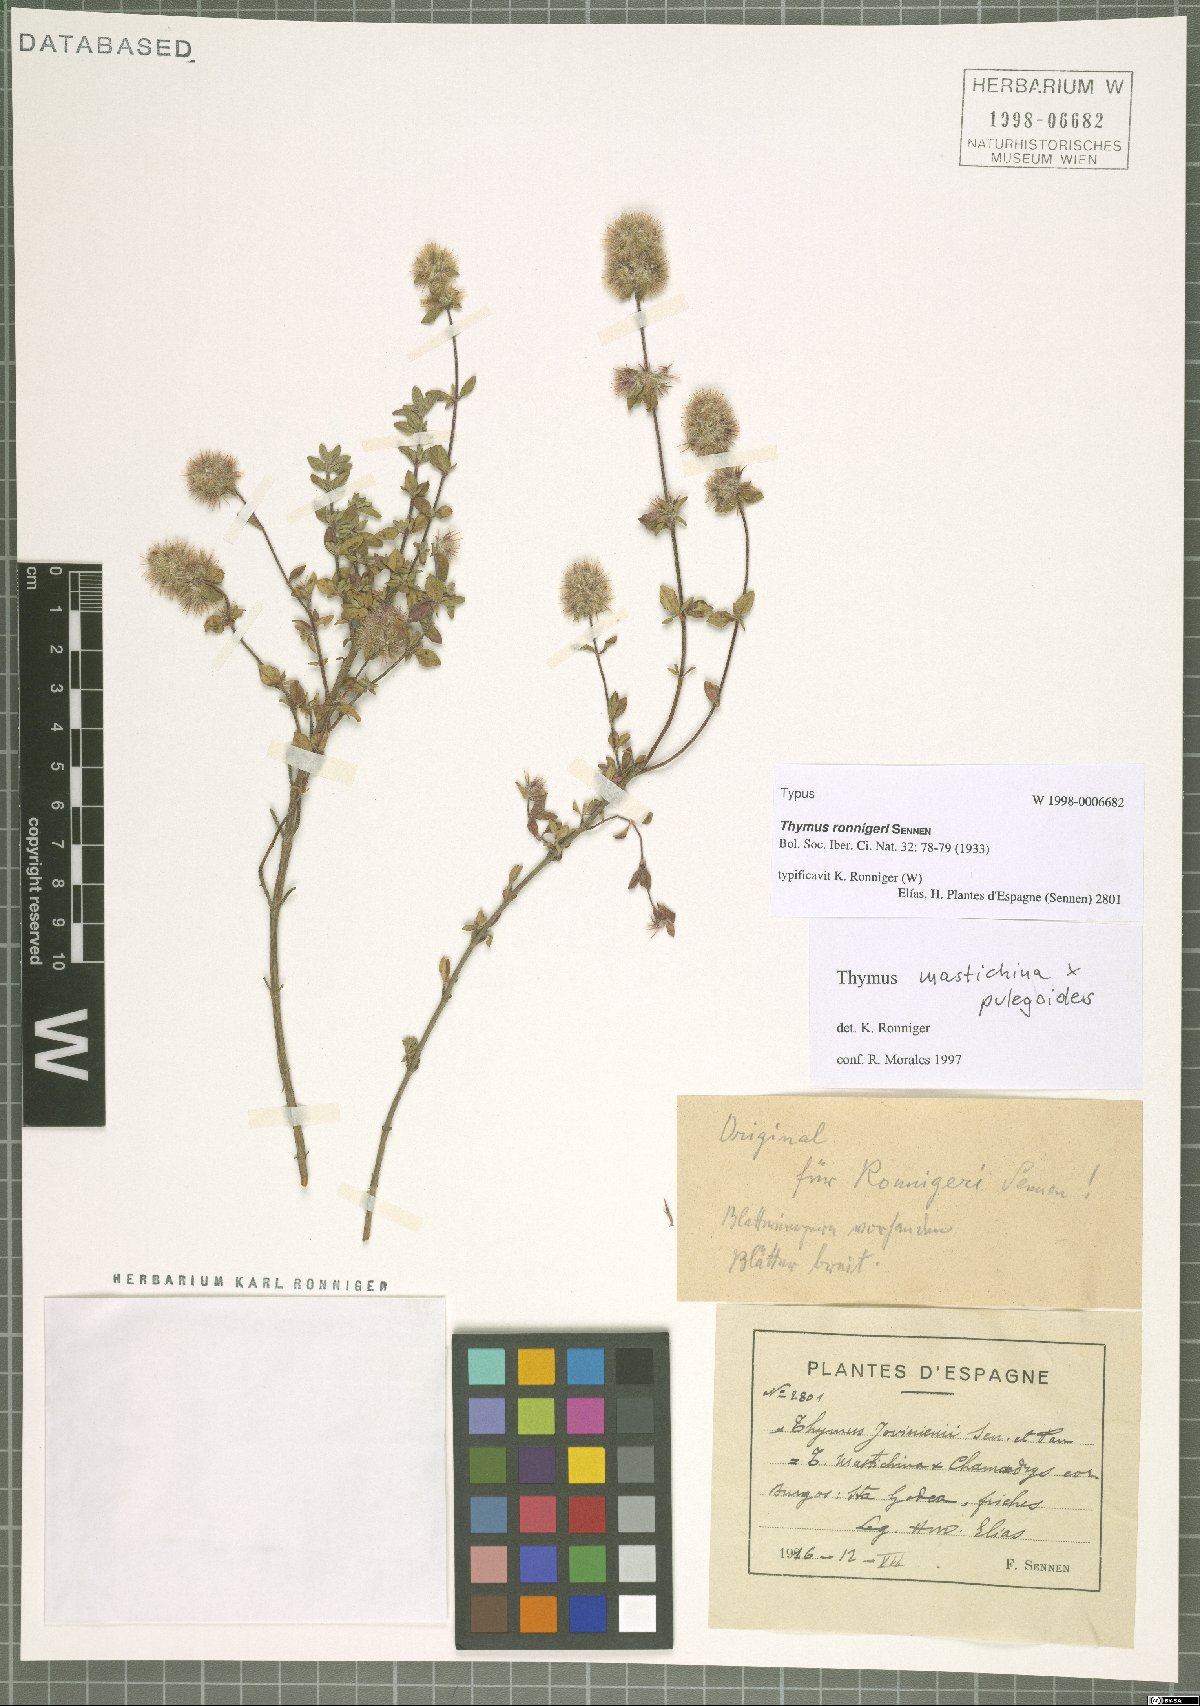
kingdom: Plantae
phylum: Tracheophyta
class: Magnoliopsida
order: Lamiales
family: Lamiaceae
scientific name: Lamiaceae
